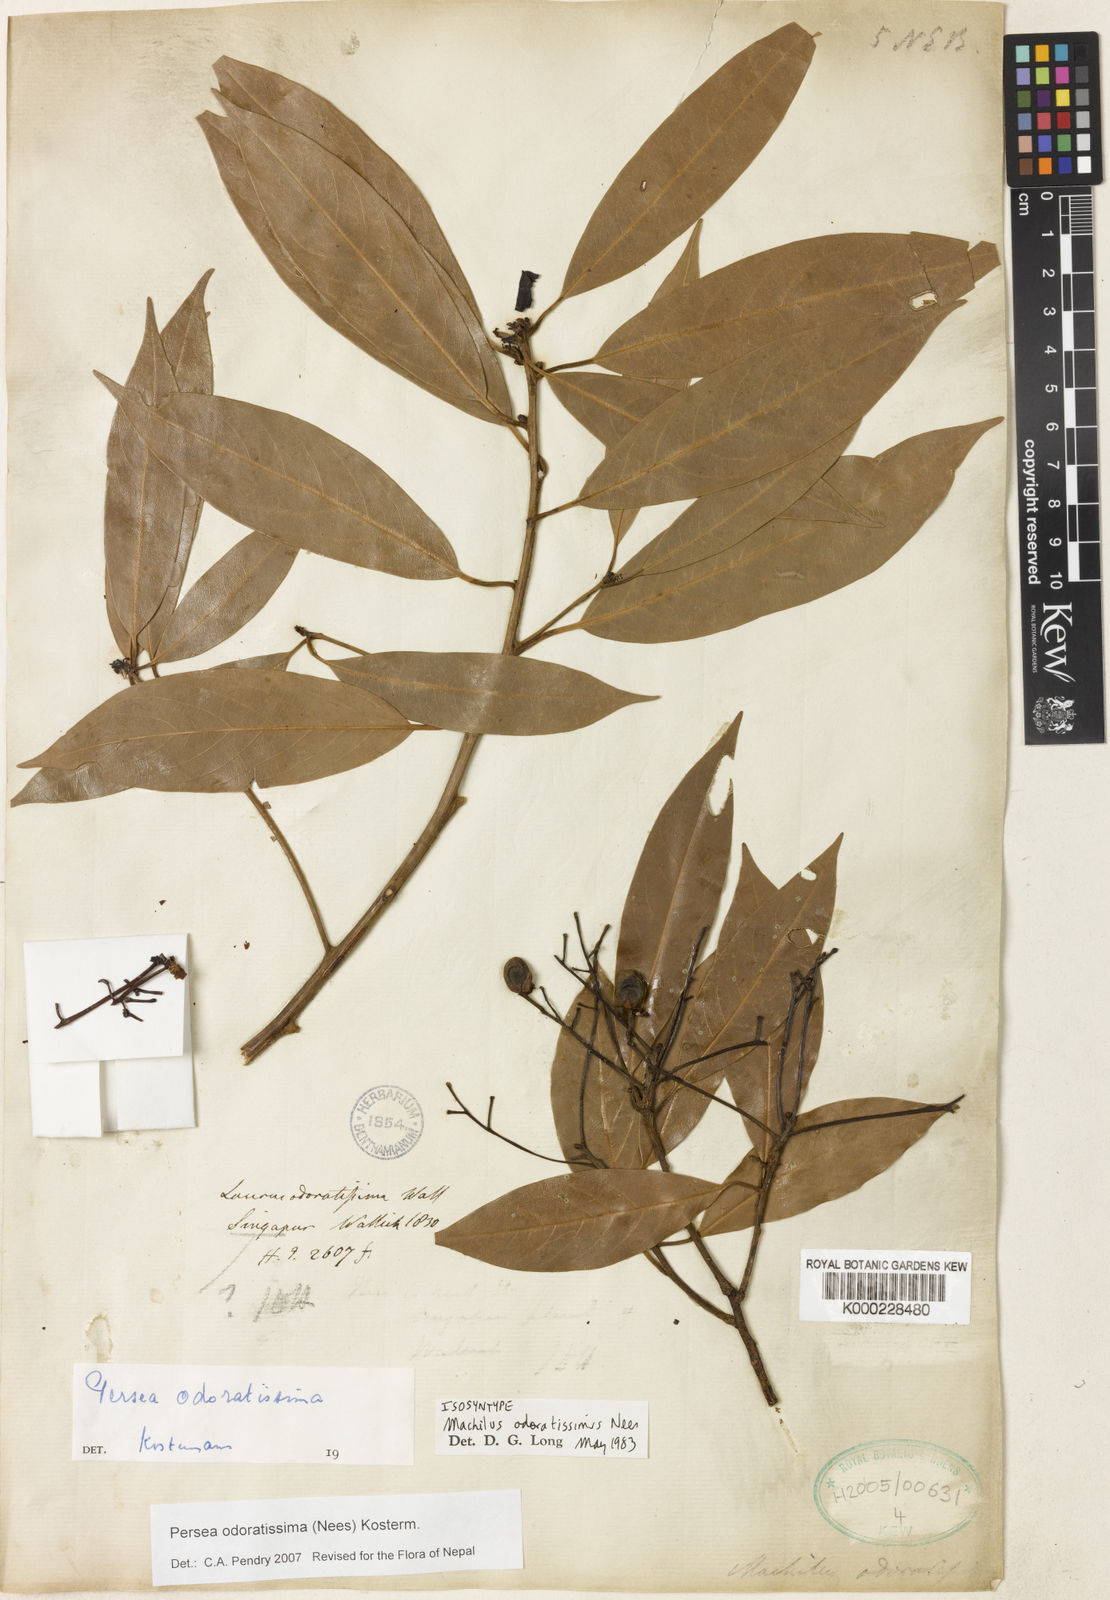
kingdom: Plantae
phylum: Tracheophyta
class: Magnoliopsida
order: Laurales
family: Lauraceae
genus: Machilus
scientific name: Machilus odoratissimus
